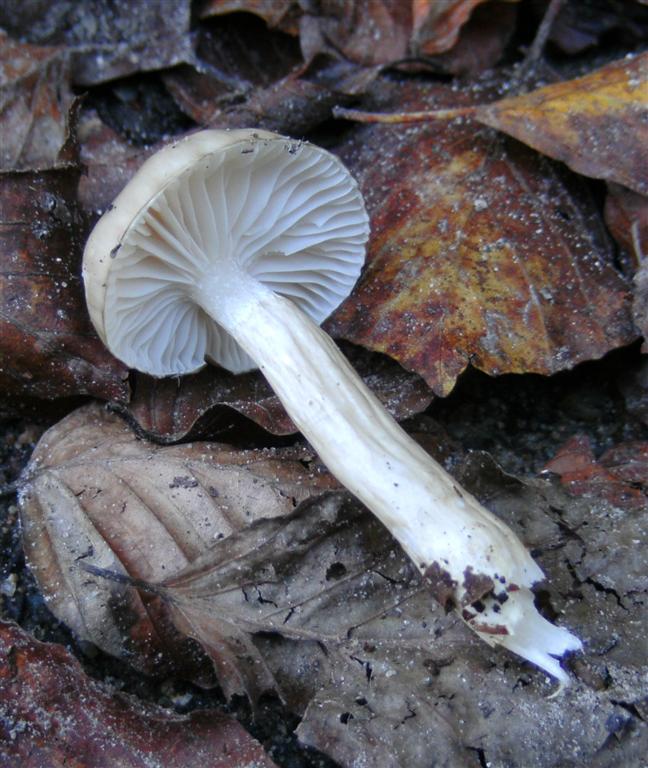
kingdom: Fungi
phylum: Basidiomycota
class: Agaricomycetes
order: Agaricales
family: Hygrophoraceae
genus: Hygrophorus
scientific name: Hygrophorus mesotephrus
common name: askegrå sneglehat
